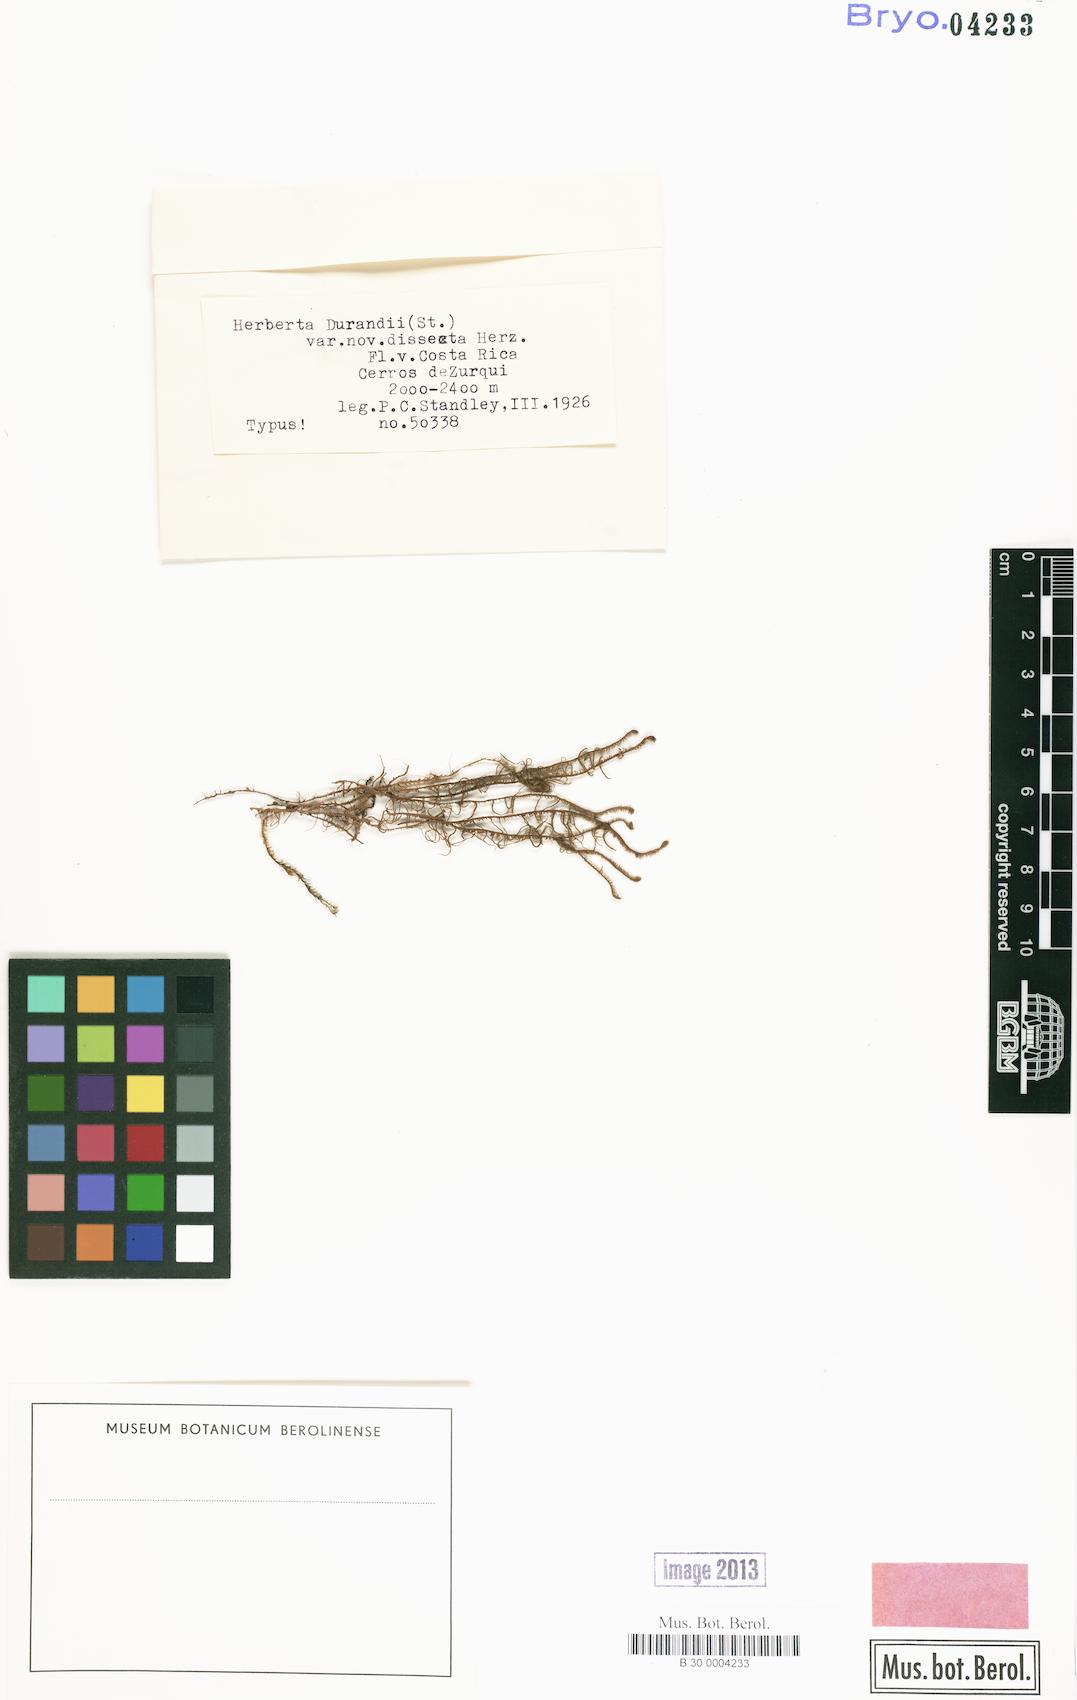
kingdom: Plantae
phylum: Marchantiophyta
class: Jungermanniopsida
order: Jungermanniales
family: Herbertaceae
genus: Herbertus
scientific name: Herbertus sendtneri
